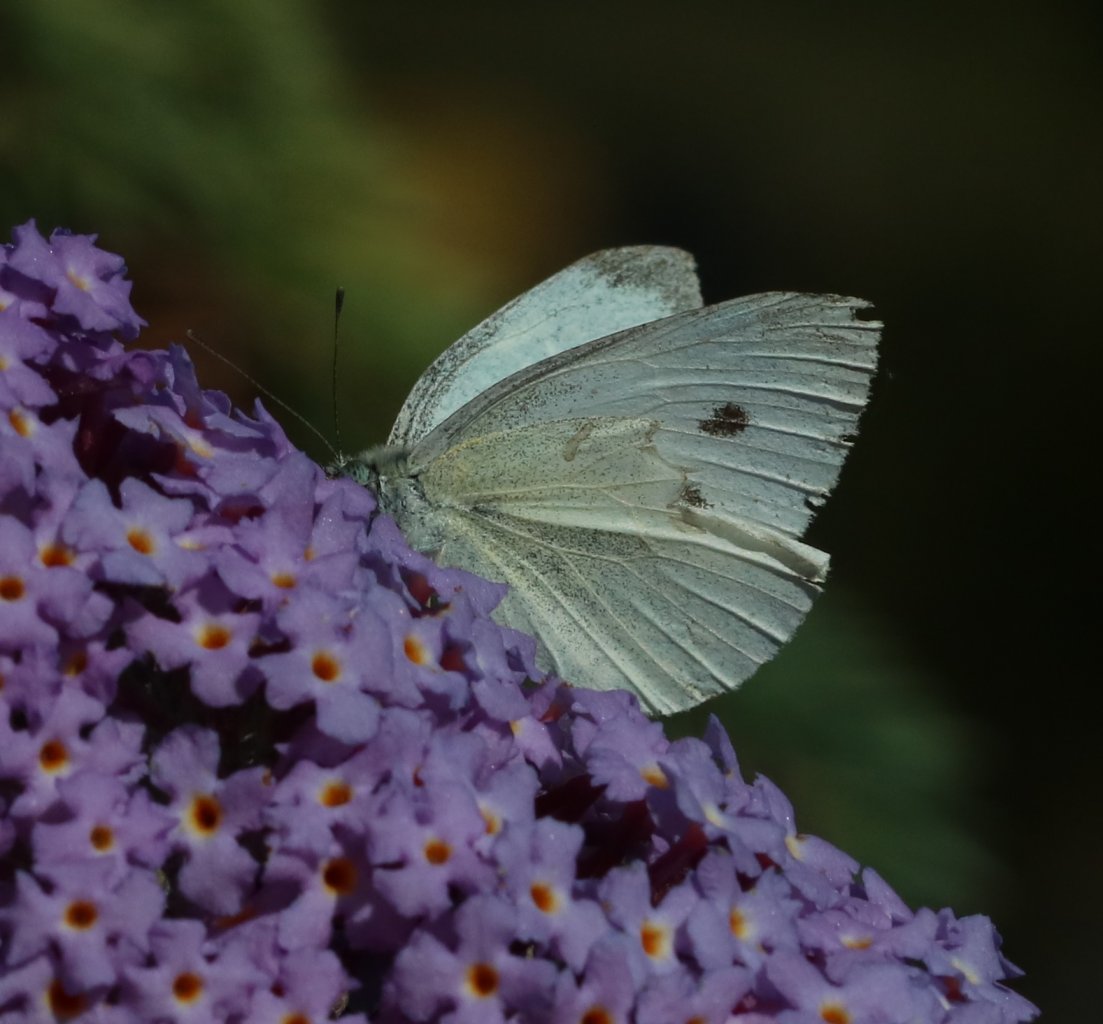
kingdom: Animalia
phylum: Arthropoda
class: Insecta
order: Lepidoptera
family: Pieridae
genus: Pieris
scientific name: Pieris rapae
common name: Cabbage White
